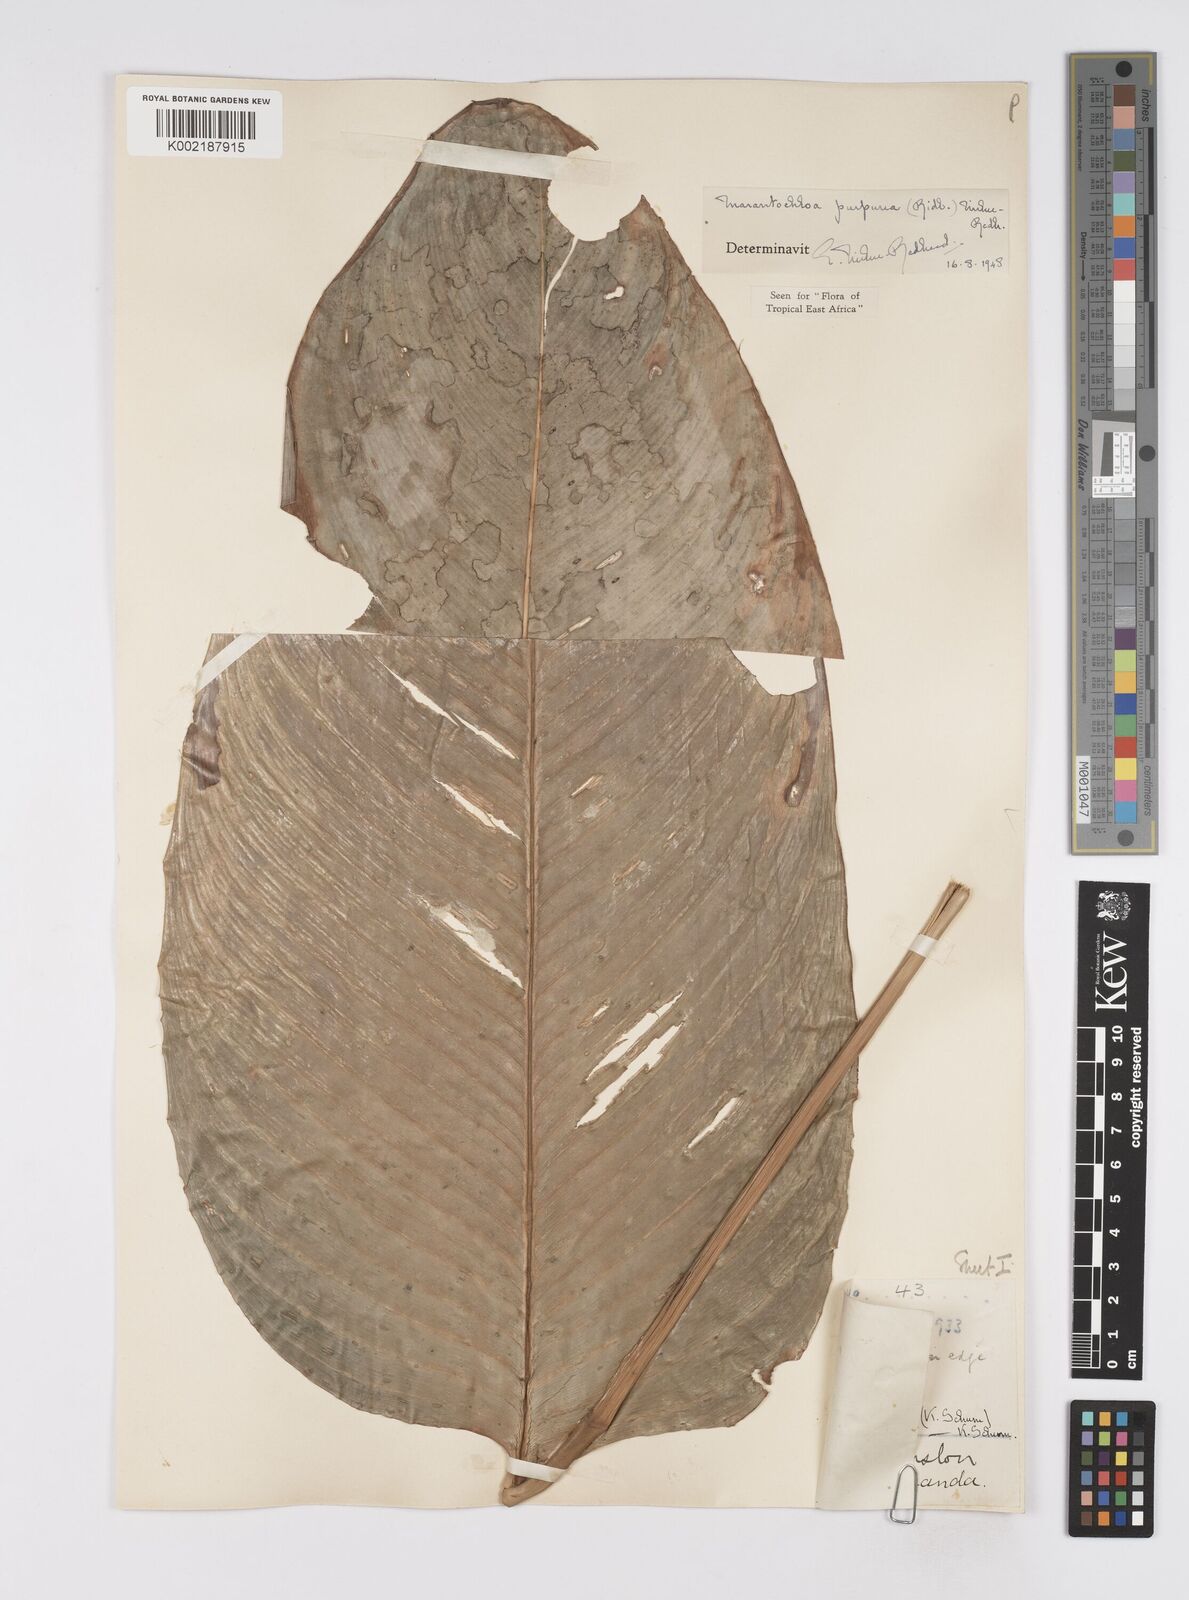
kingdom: Plantae
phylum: Tracheophyta
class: Liliopsida
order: Zingiberales
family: Marantaceae
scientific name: Marantaceae
